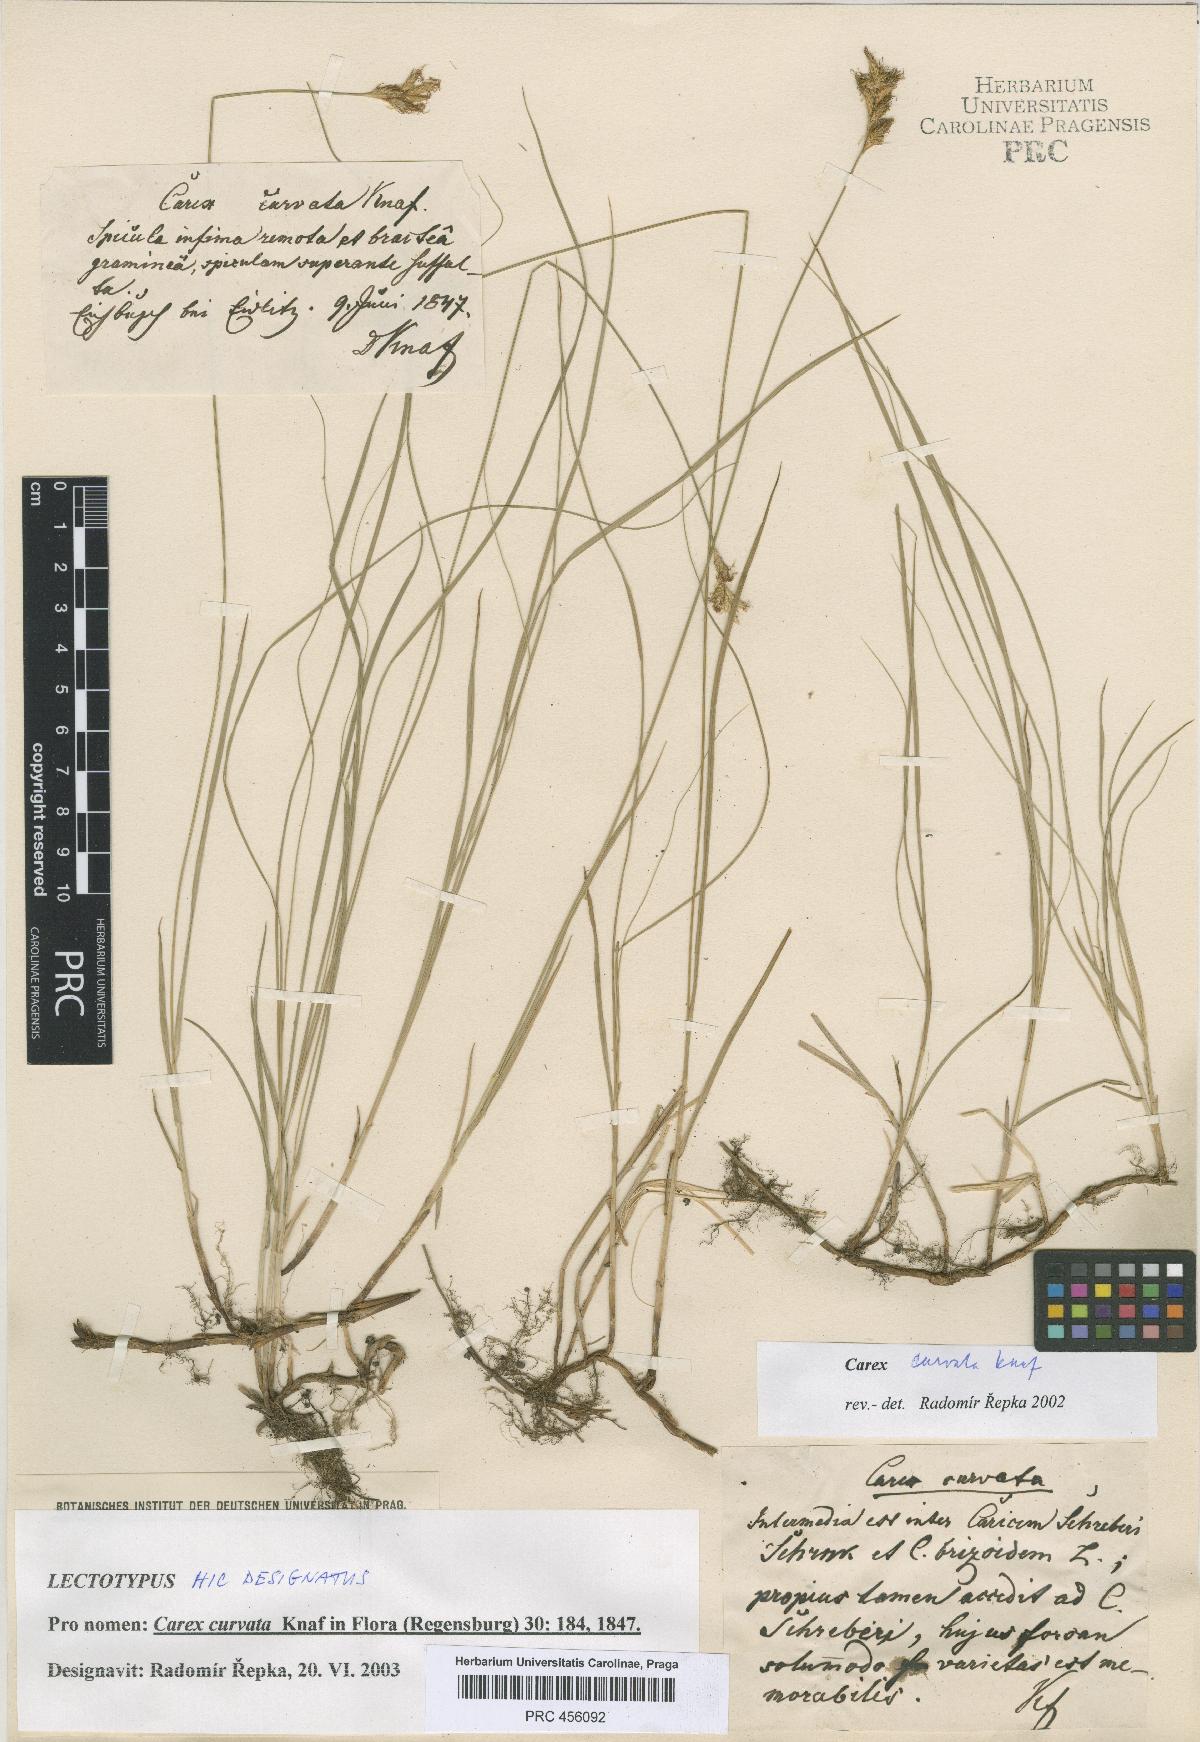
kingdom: Plantae
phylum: Tracheophyta
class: Liliopsida
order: Poales
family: Cyperaceae
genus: Carex
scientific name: Carex curvata
